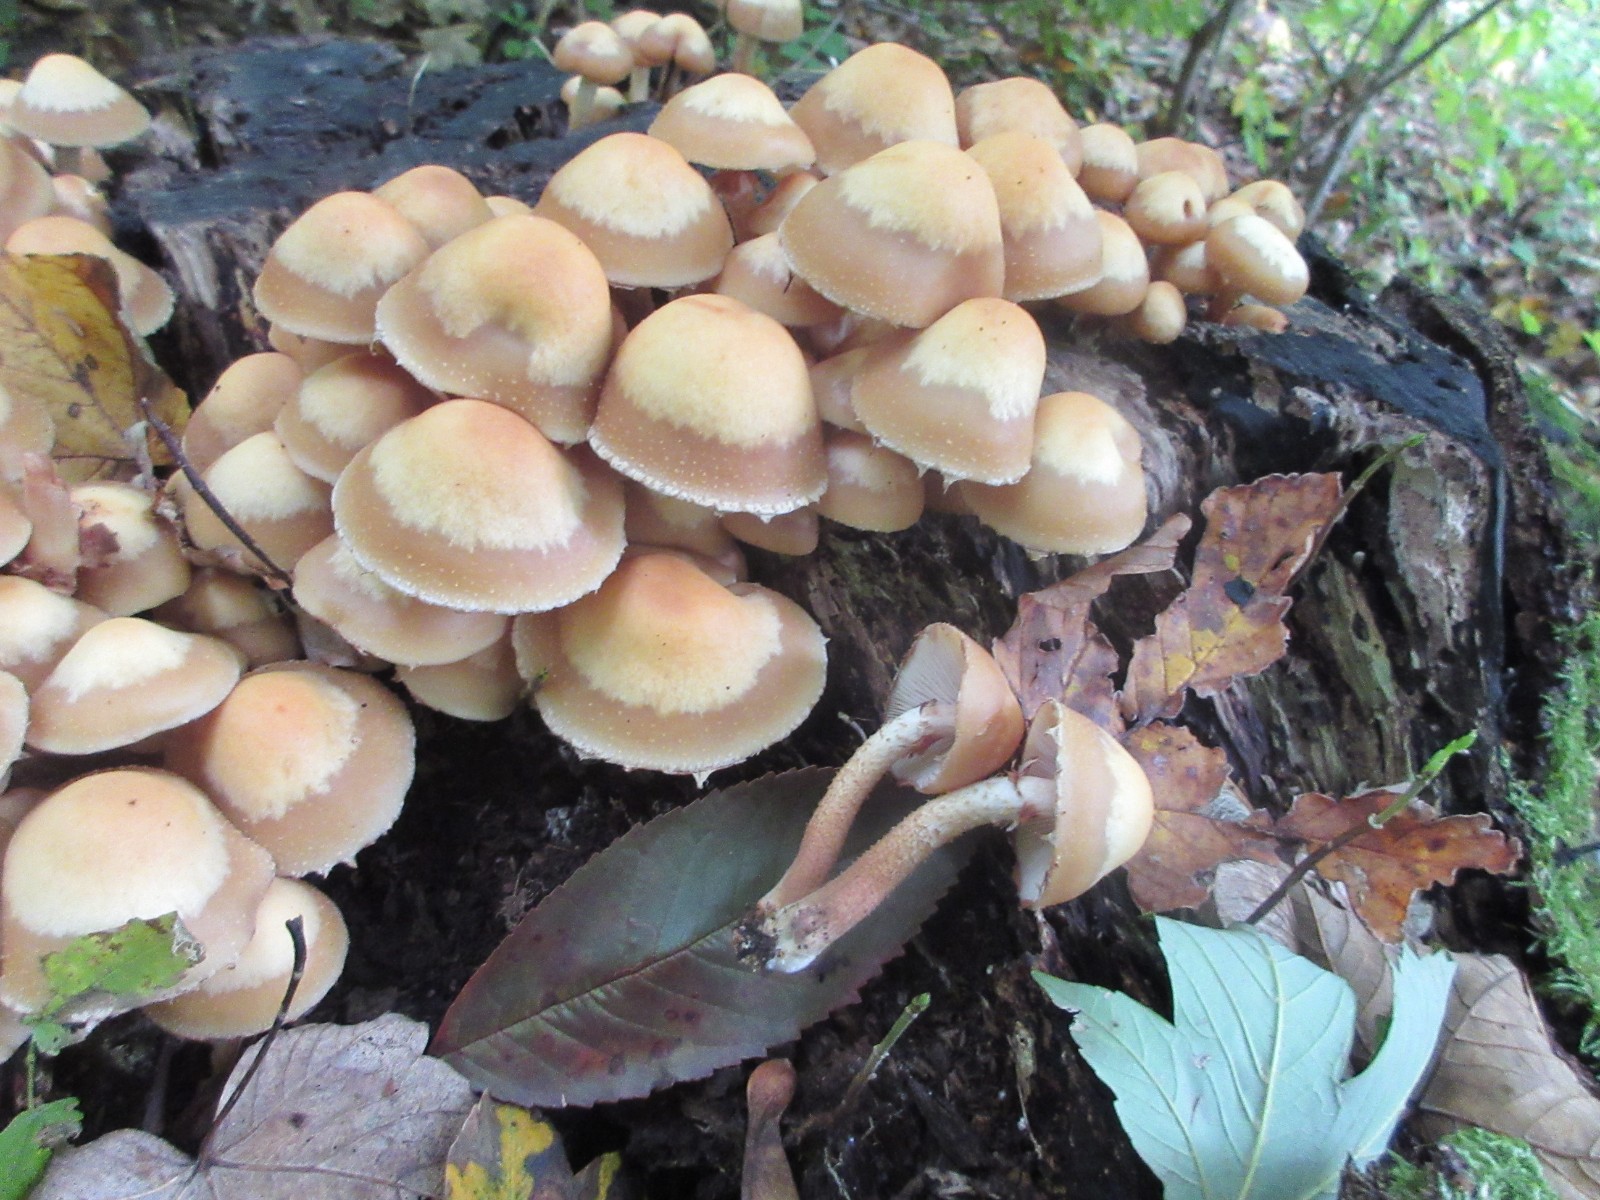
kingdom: Fungi
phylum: Basidiomycota
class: Agaricomycetes
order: Agaricales
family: Strophariaceae
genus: Kuehneromyces
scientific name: Kuehneromyces mutabilis
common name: foranderlig skælhat
